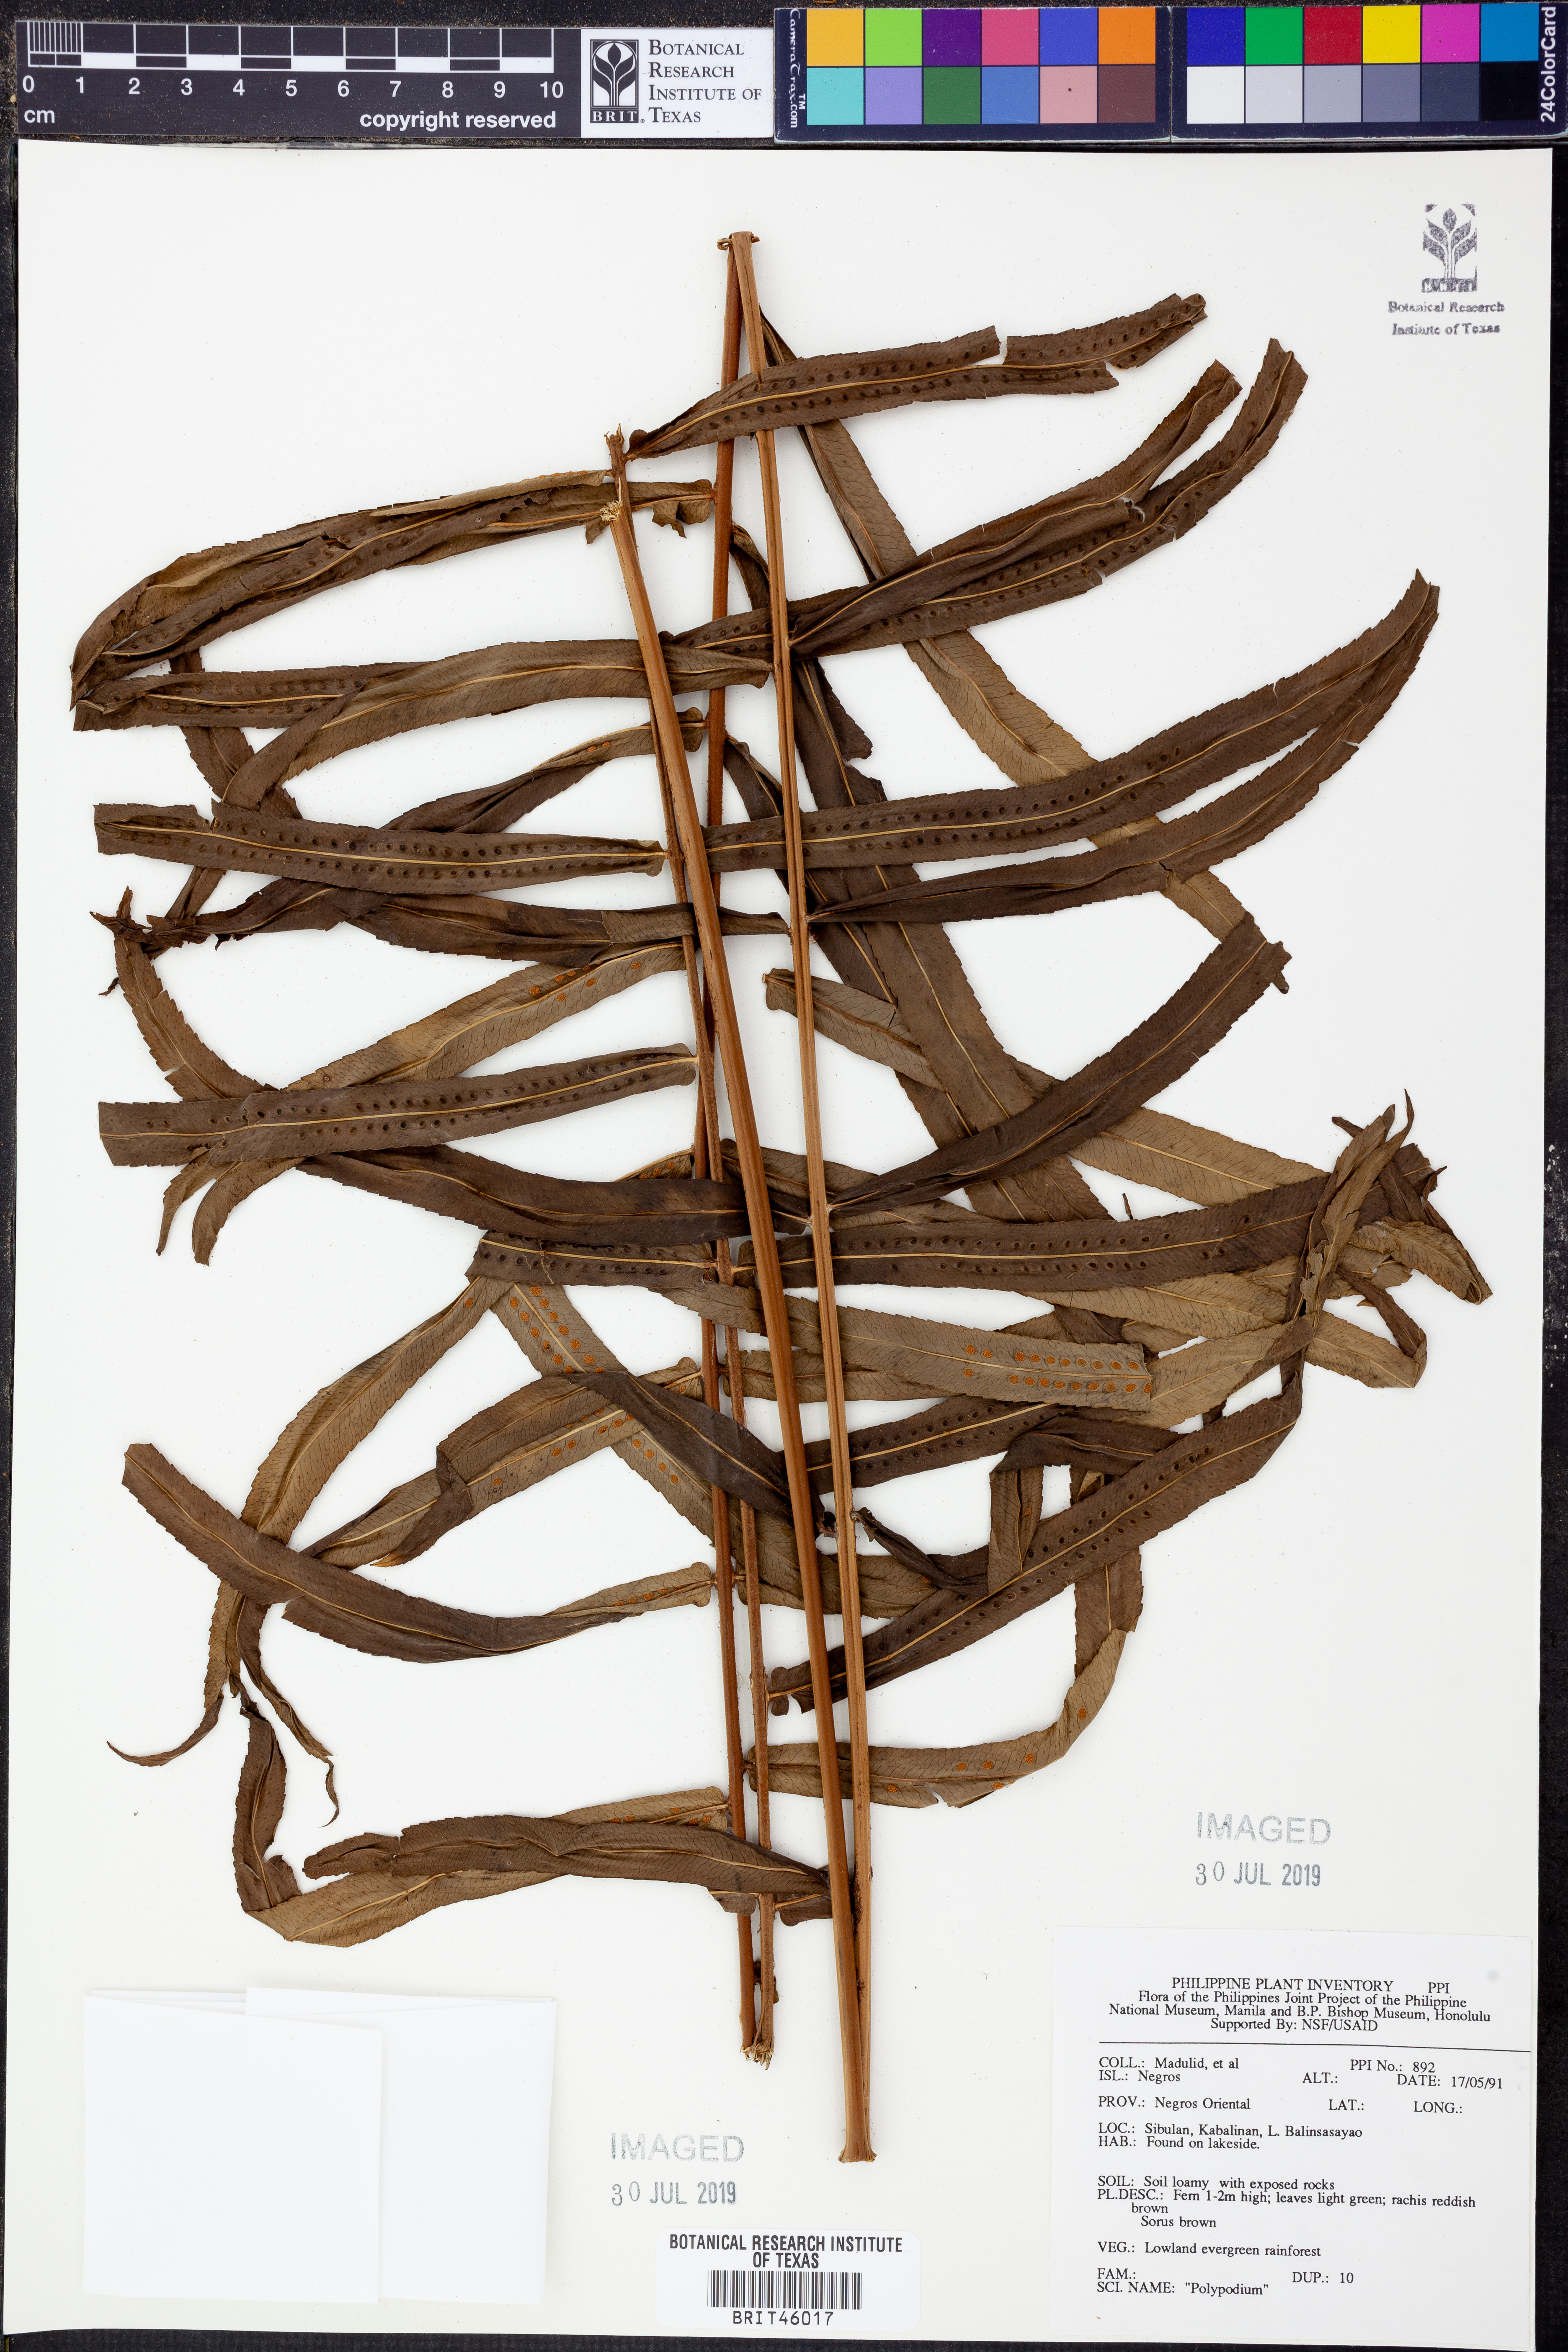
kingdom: Plantae
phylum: Tracheophyta
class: Polypodiopsida
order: Polypodiales
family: Polypodiaceae
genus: Polypodium
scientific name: Polypodium
